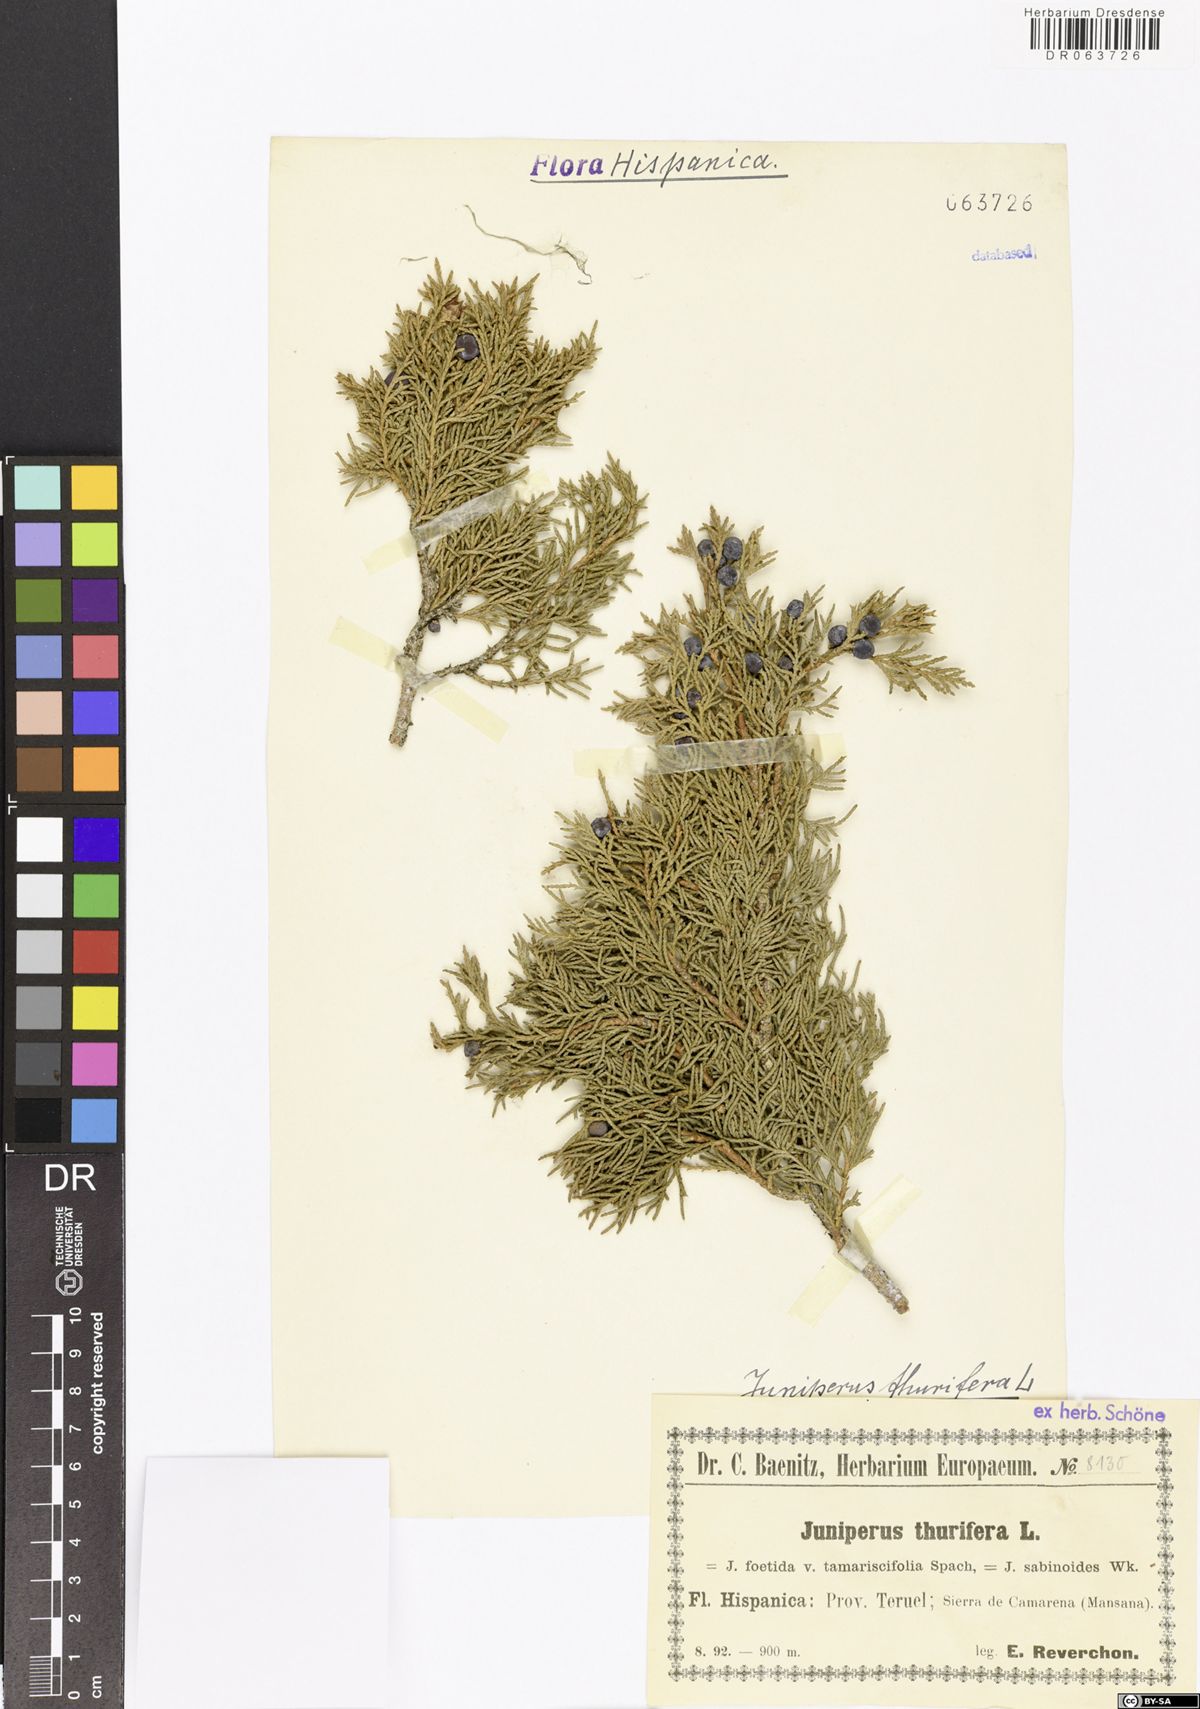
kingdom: Plantae
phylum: Tracheophyta
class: Pinopsida
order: Pinales
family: Cupressaceae
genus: Juniperus
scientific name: Juniperus thurifera
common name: Incense juniper
